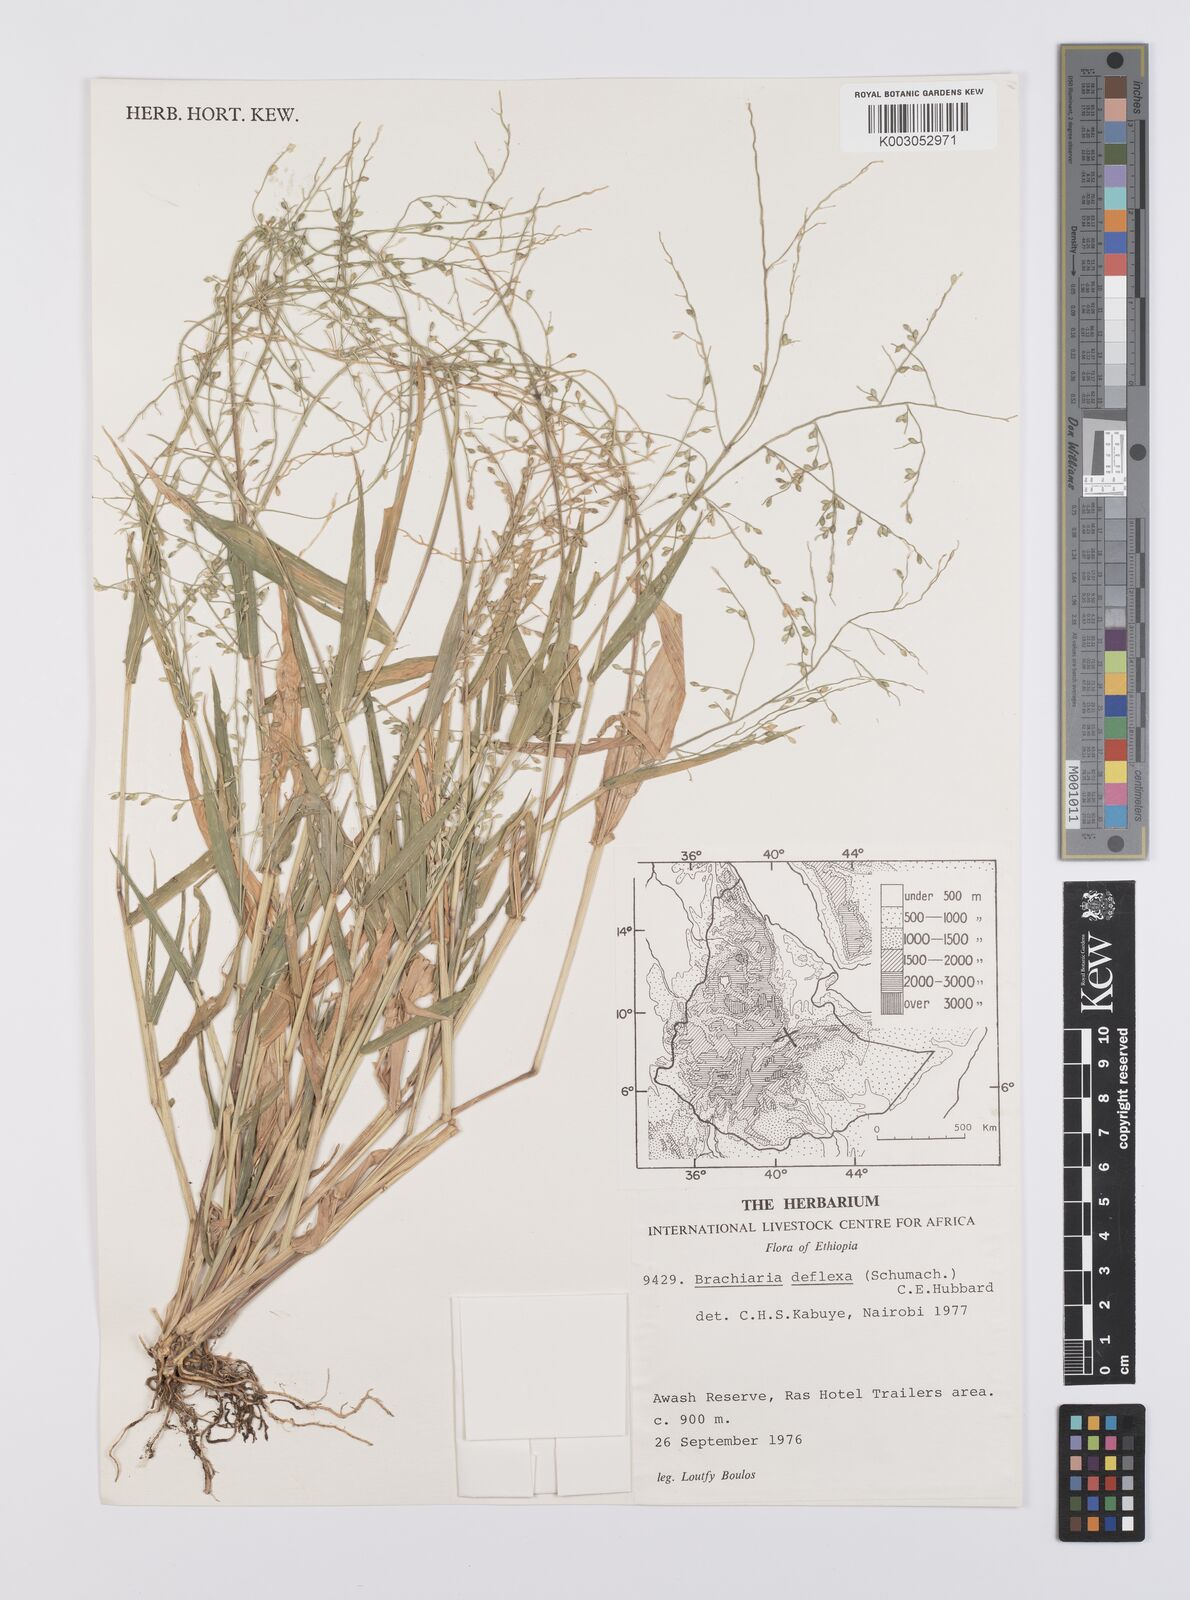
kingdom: Plantae
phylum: Tracheophyta
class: Liliopsida
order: Poales
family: Poaceae
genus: Urochloa
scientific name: Urochloa deflexa
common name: Guinea millet
